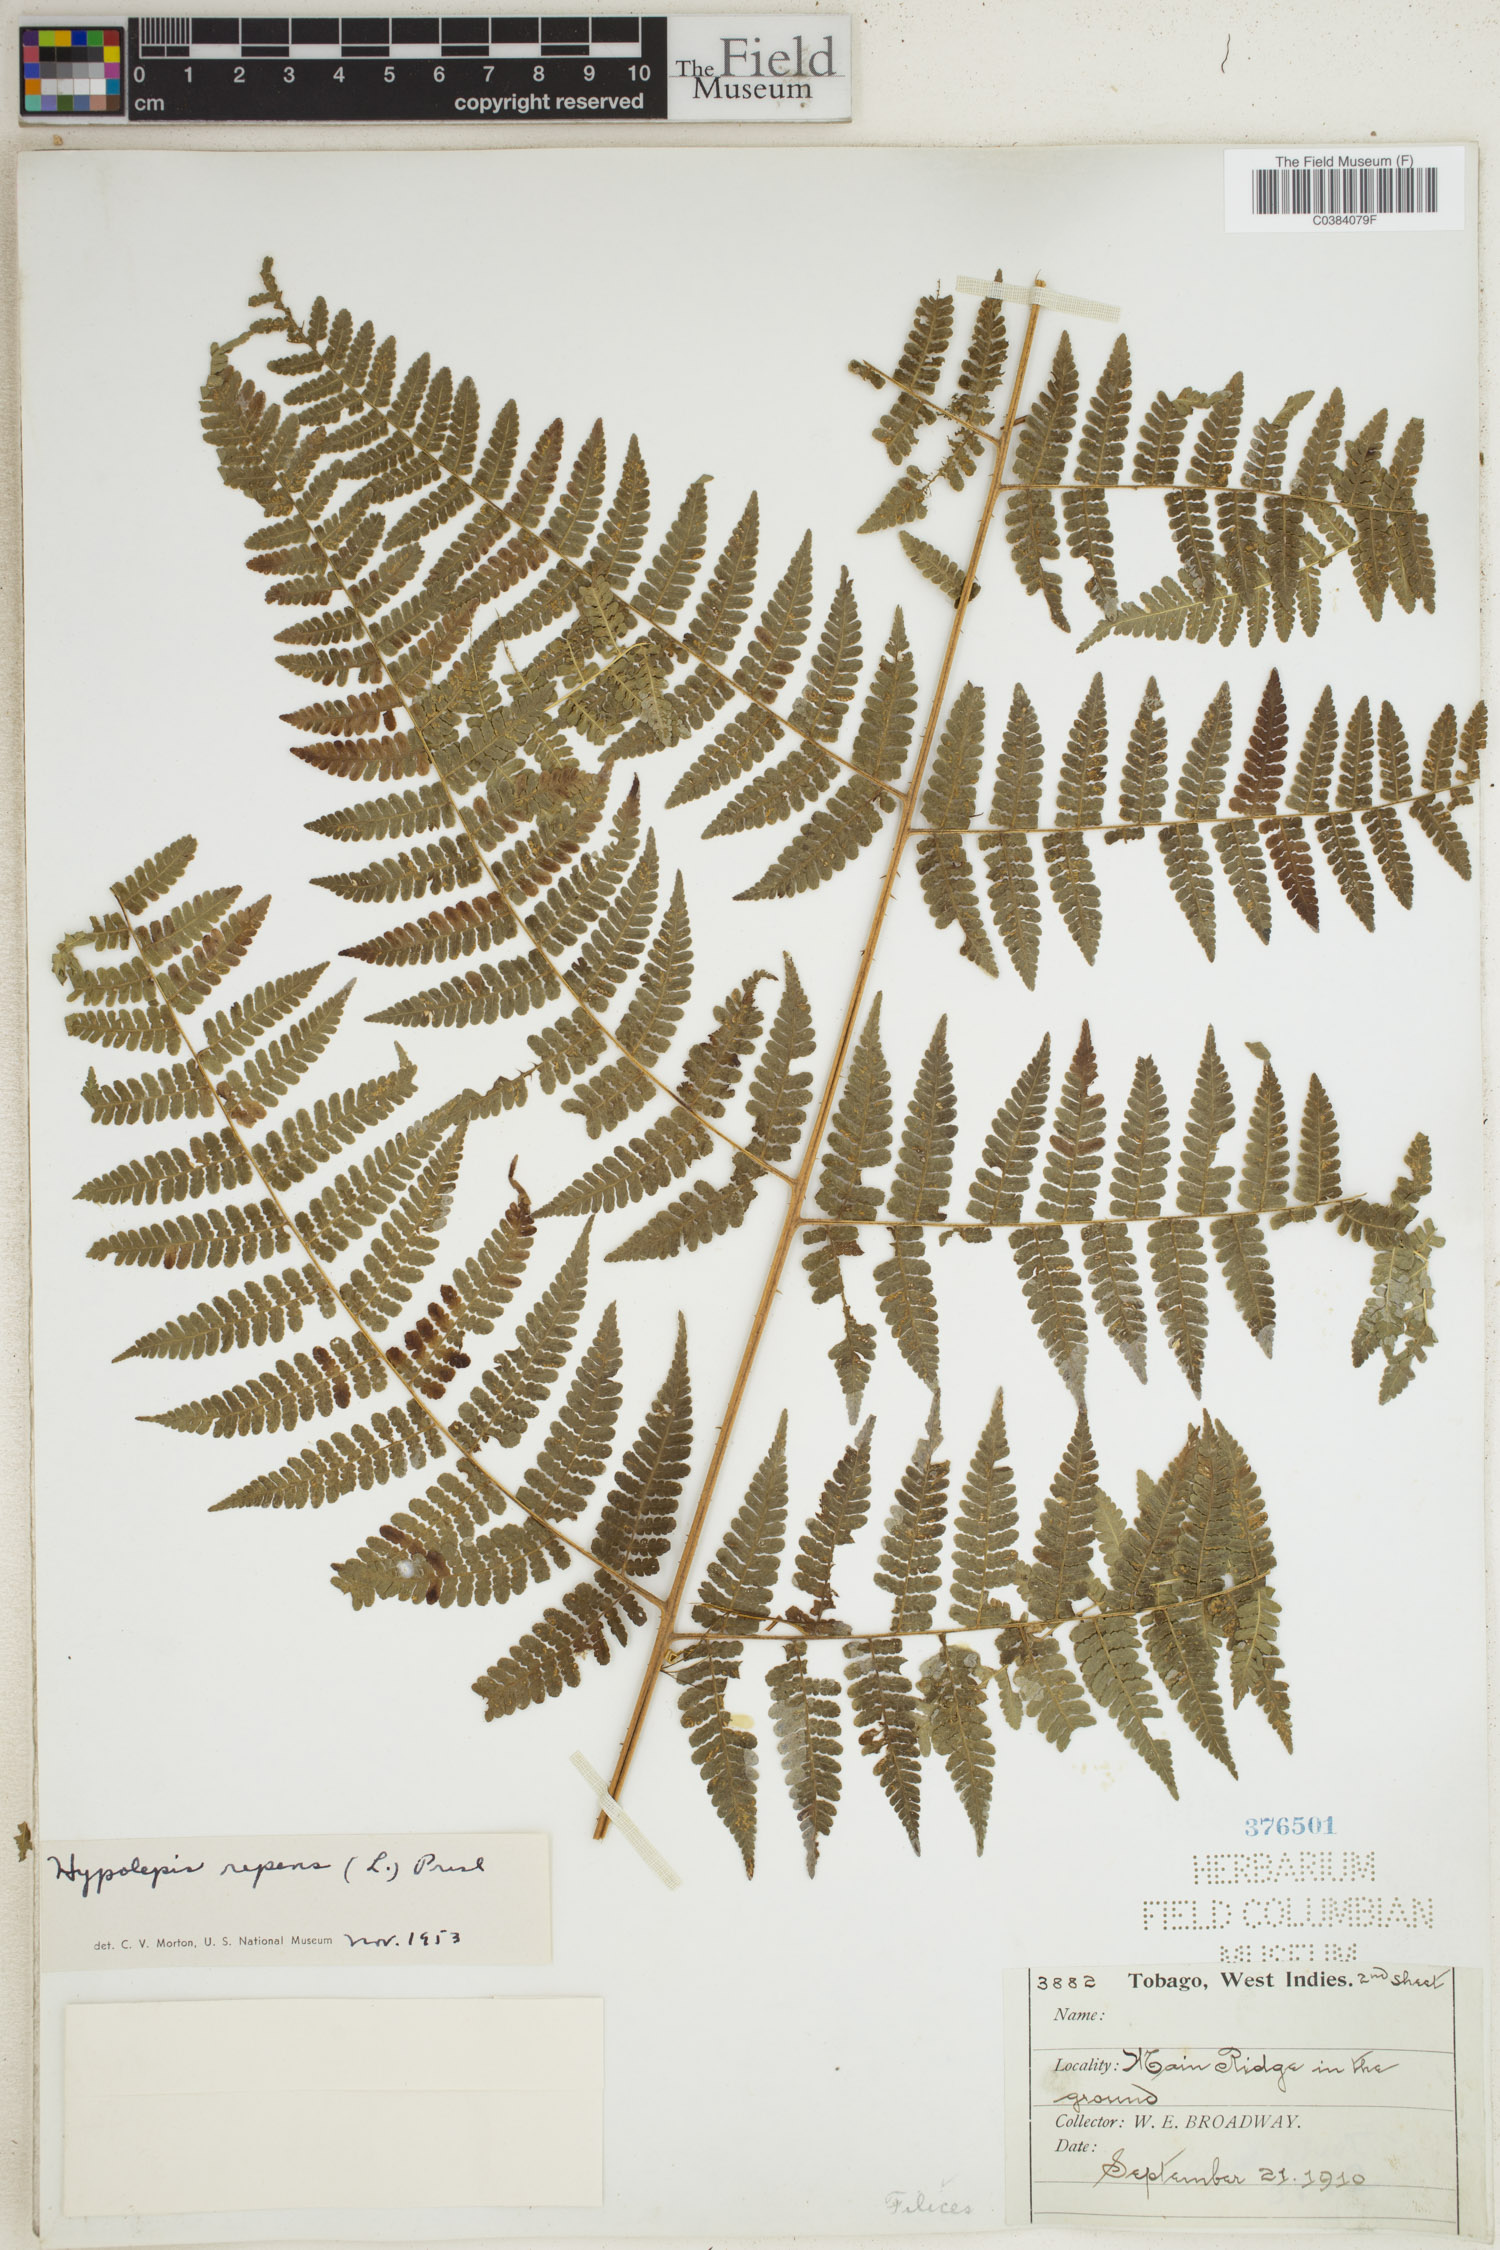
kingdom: Plantae
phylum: Tracheophyta
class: Polypodiopsida
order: Polypodiales
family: Dennstaedtiaceae
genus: Hypolepis
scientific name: Hypolepis repens
